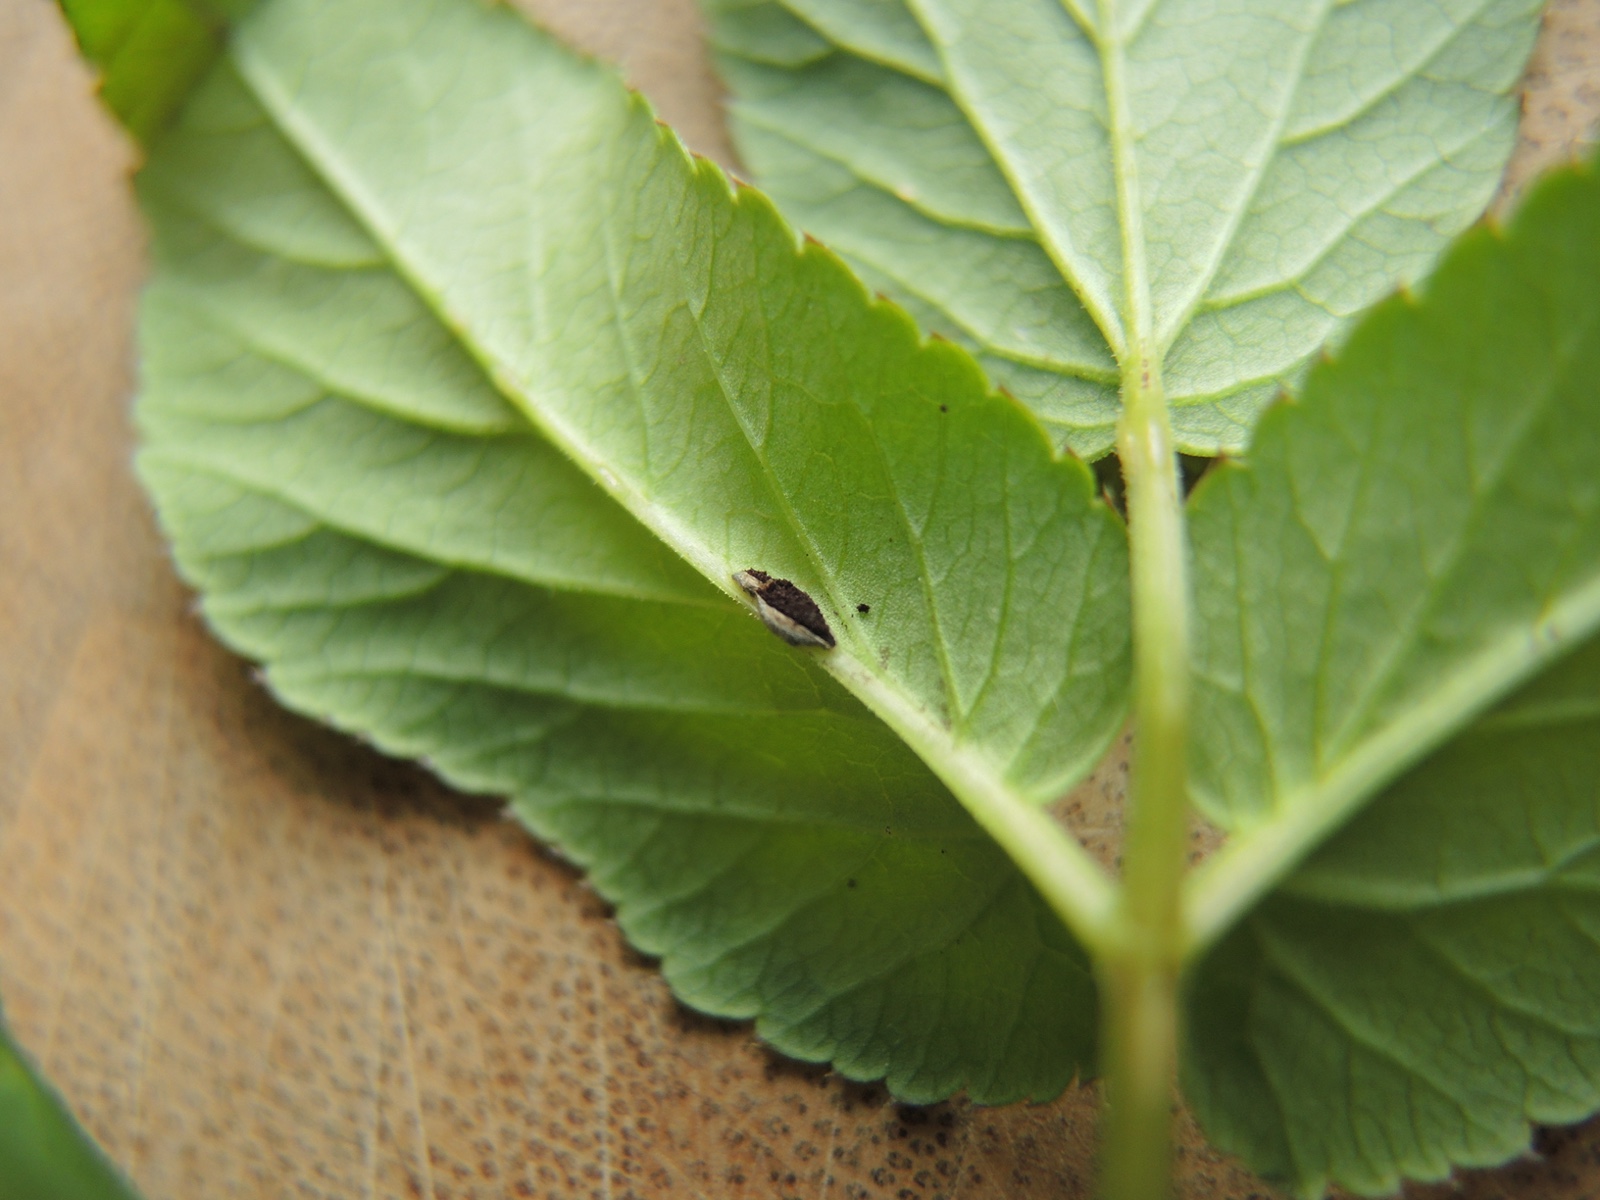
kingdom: Fungi
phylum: Basidiomycota
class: Pucciniomycetes
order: Pucciniales
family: Pucciniaceae
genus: Puccinia
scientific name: Puccinia
